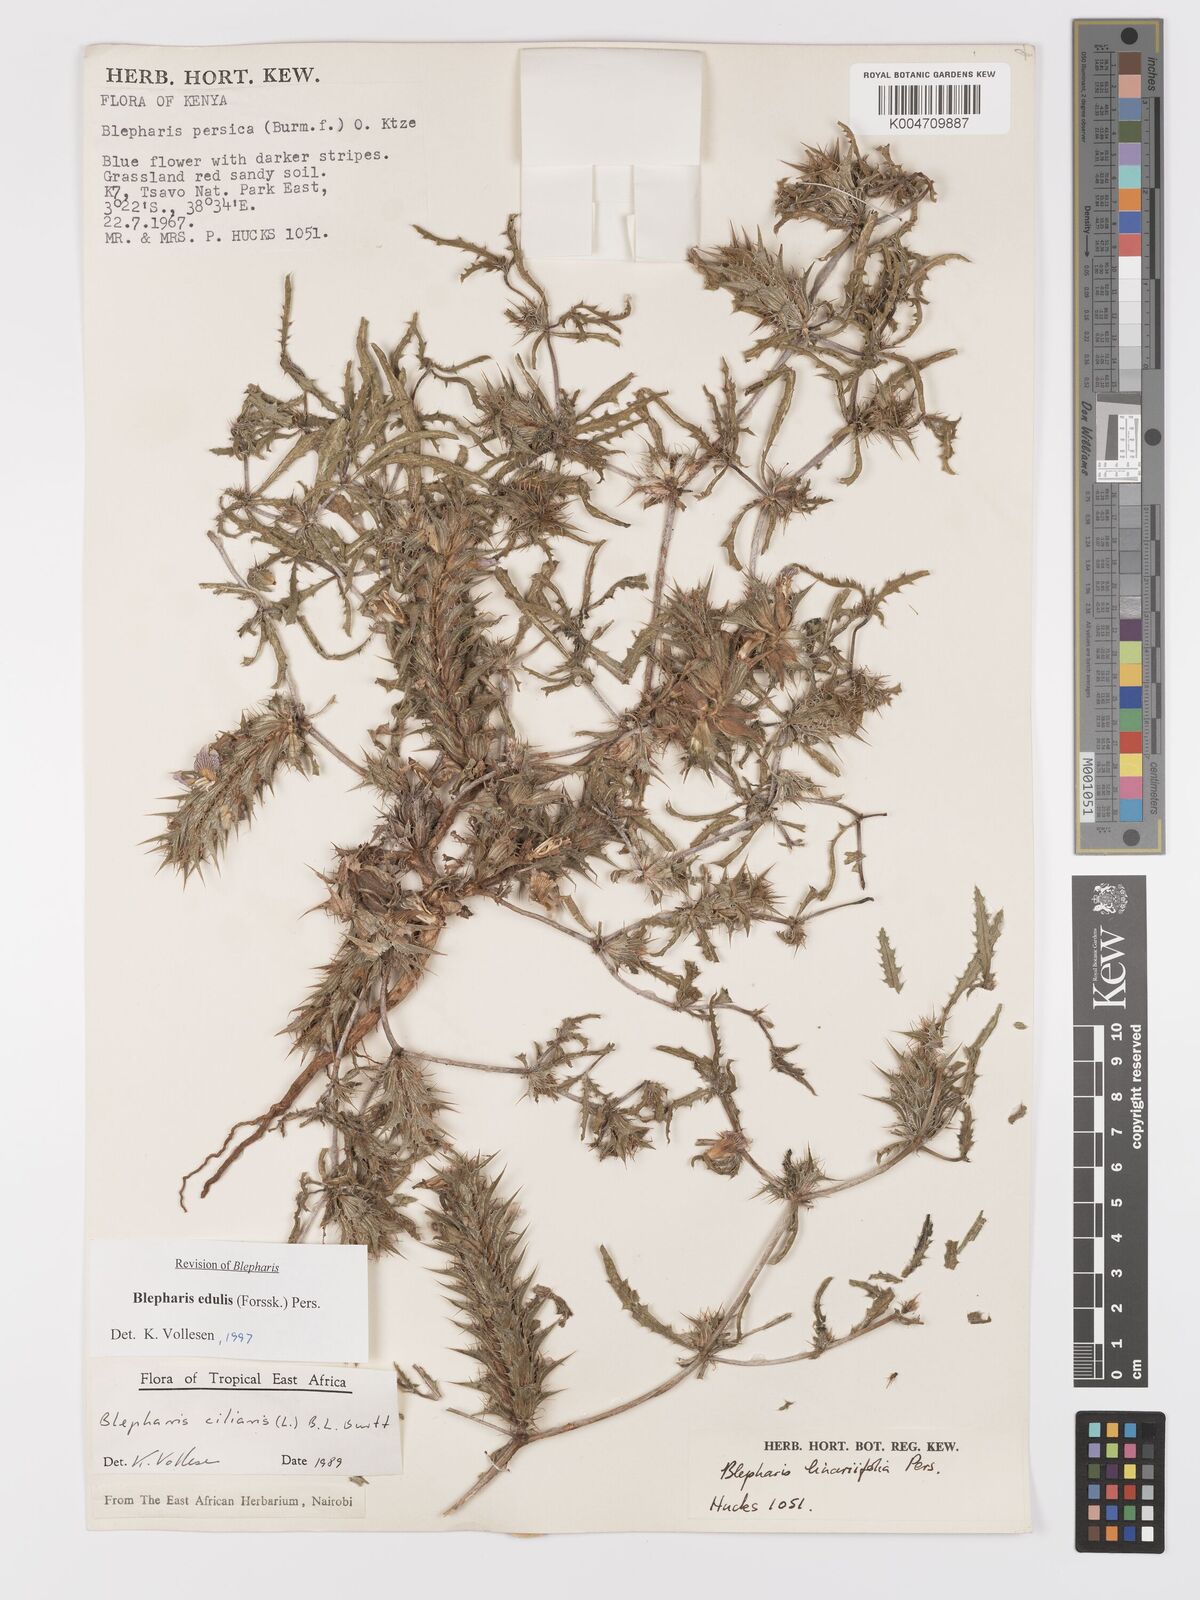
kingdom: Plantae
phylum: Tracheophyta
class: Magnoliopsida
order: Lamiales
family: Acanthaceae
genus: Blepharis
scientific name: Blepharis edulis
